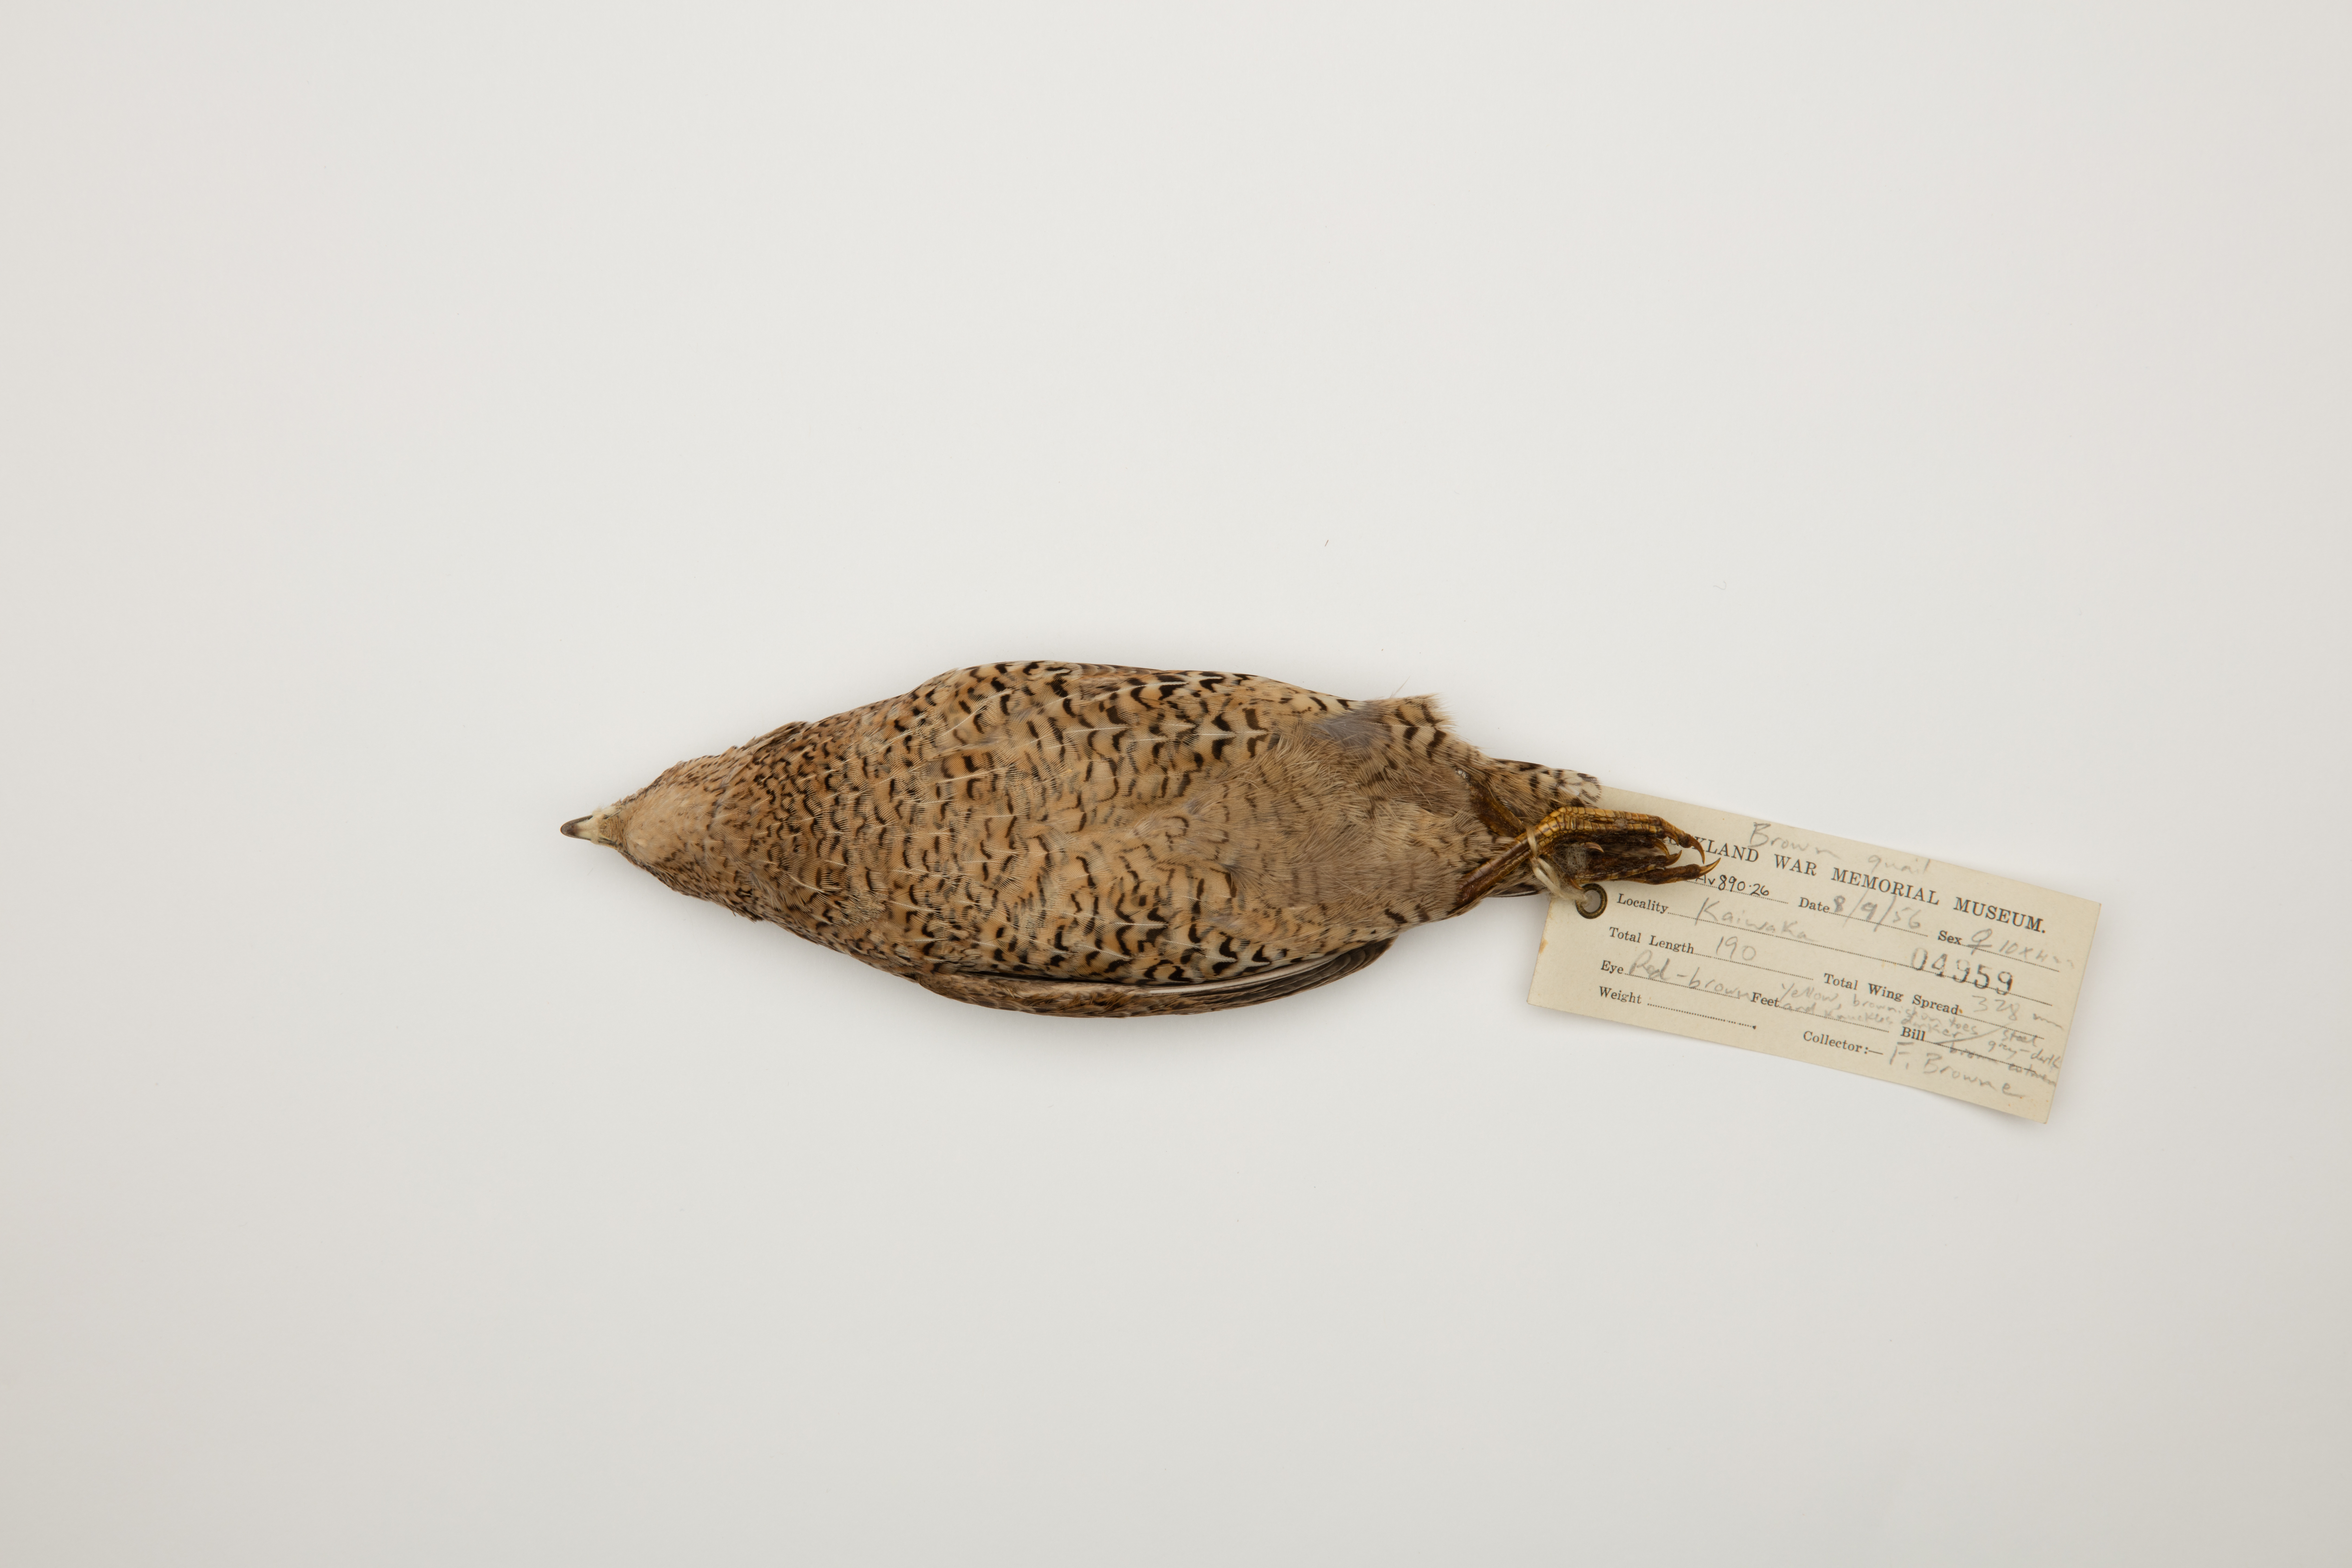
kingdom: Animalia
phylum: Chordata
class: Aves
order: Galliformes
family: Phasianidae
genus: Synoicus
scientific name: Synoicus ypsilophorus
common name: Brown quail
